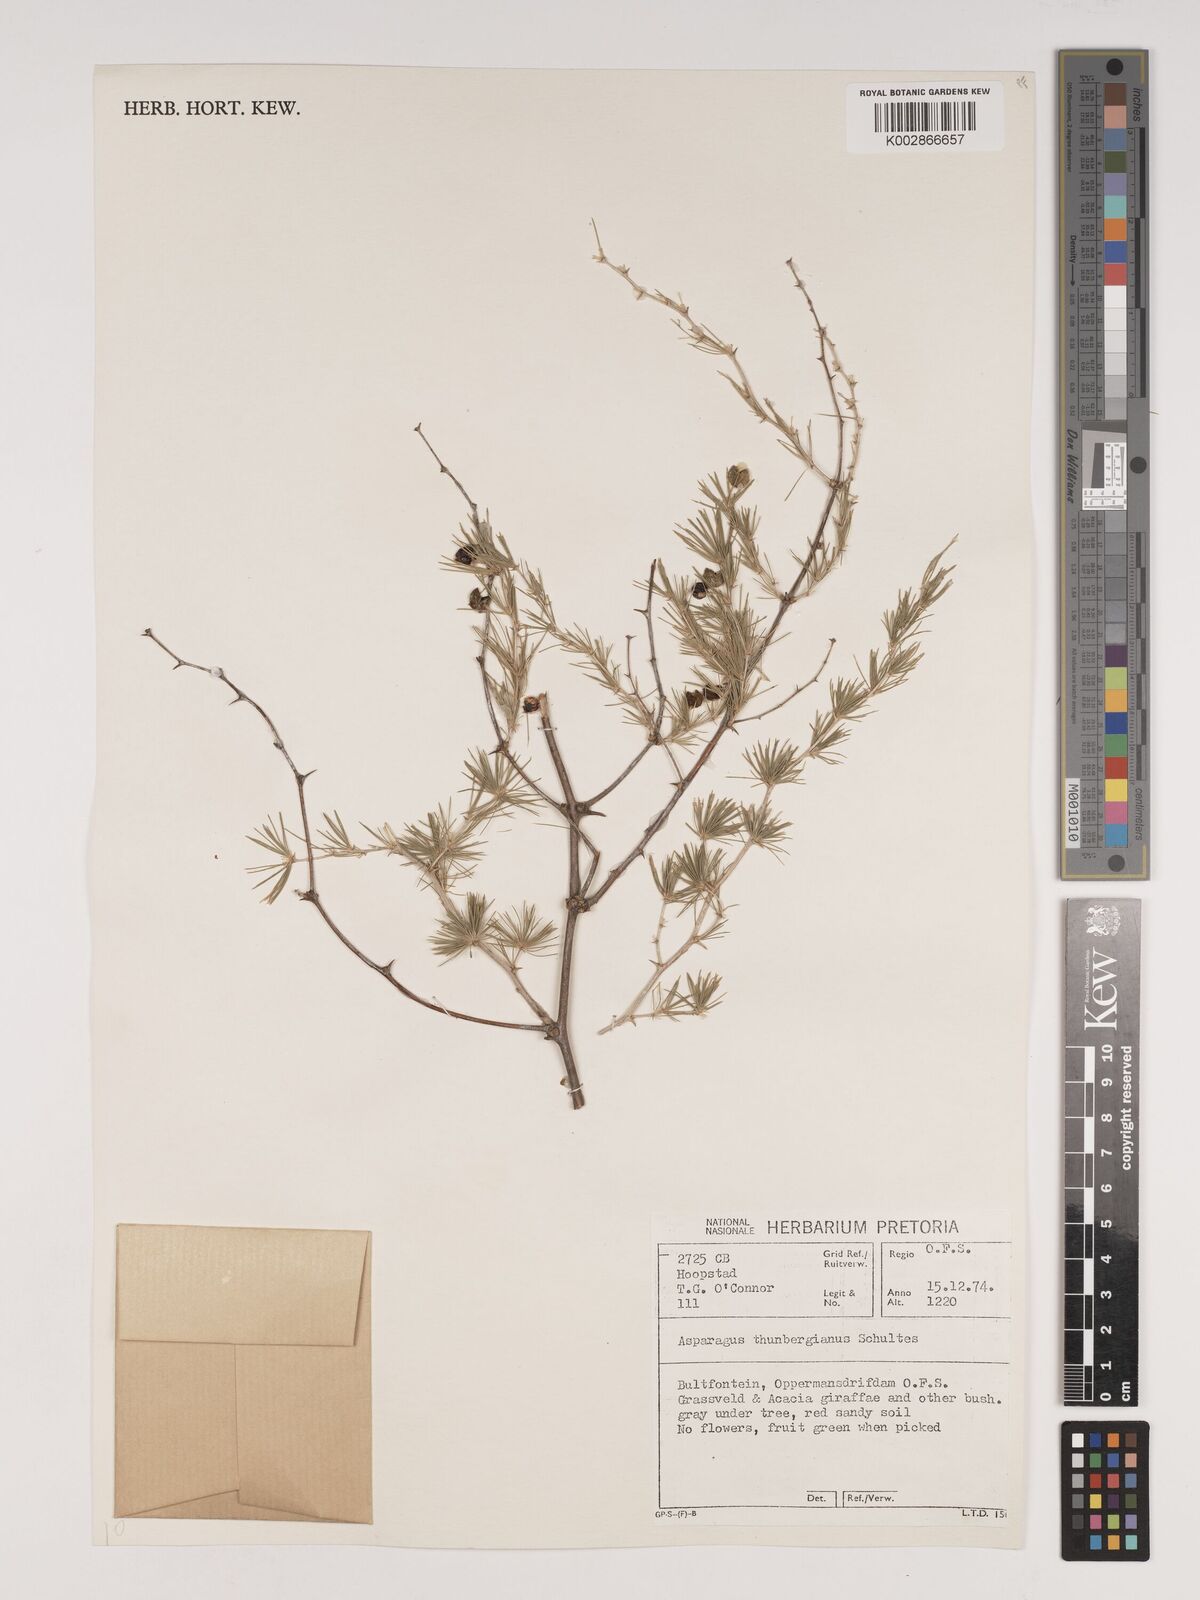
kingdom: Plantae
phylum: Tracheophyta
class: Liliopsida
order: Asparagales
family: Asparagaceae
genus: Asparagus
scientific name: Asparagus rubicundus
